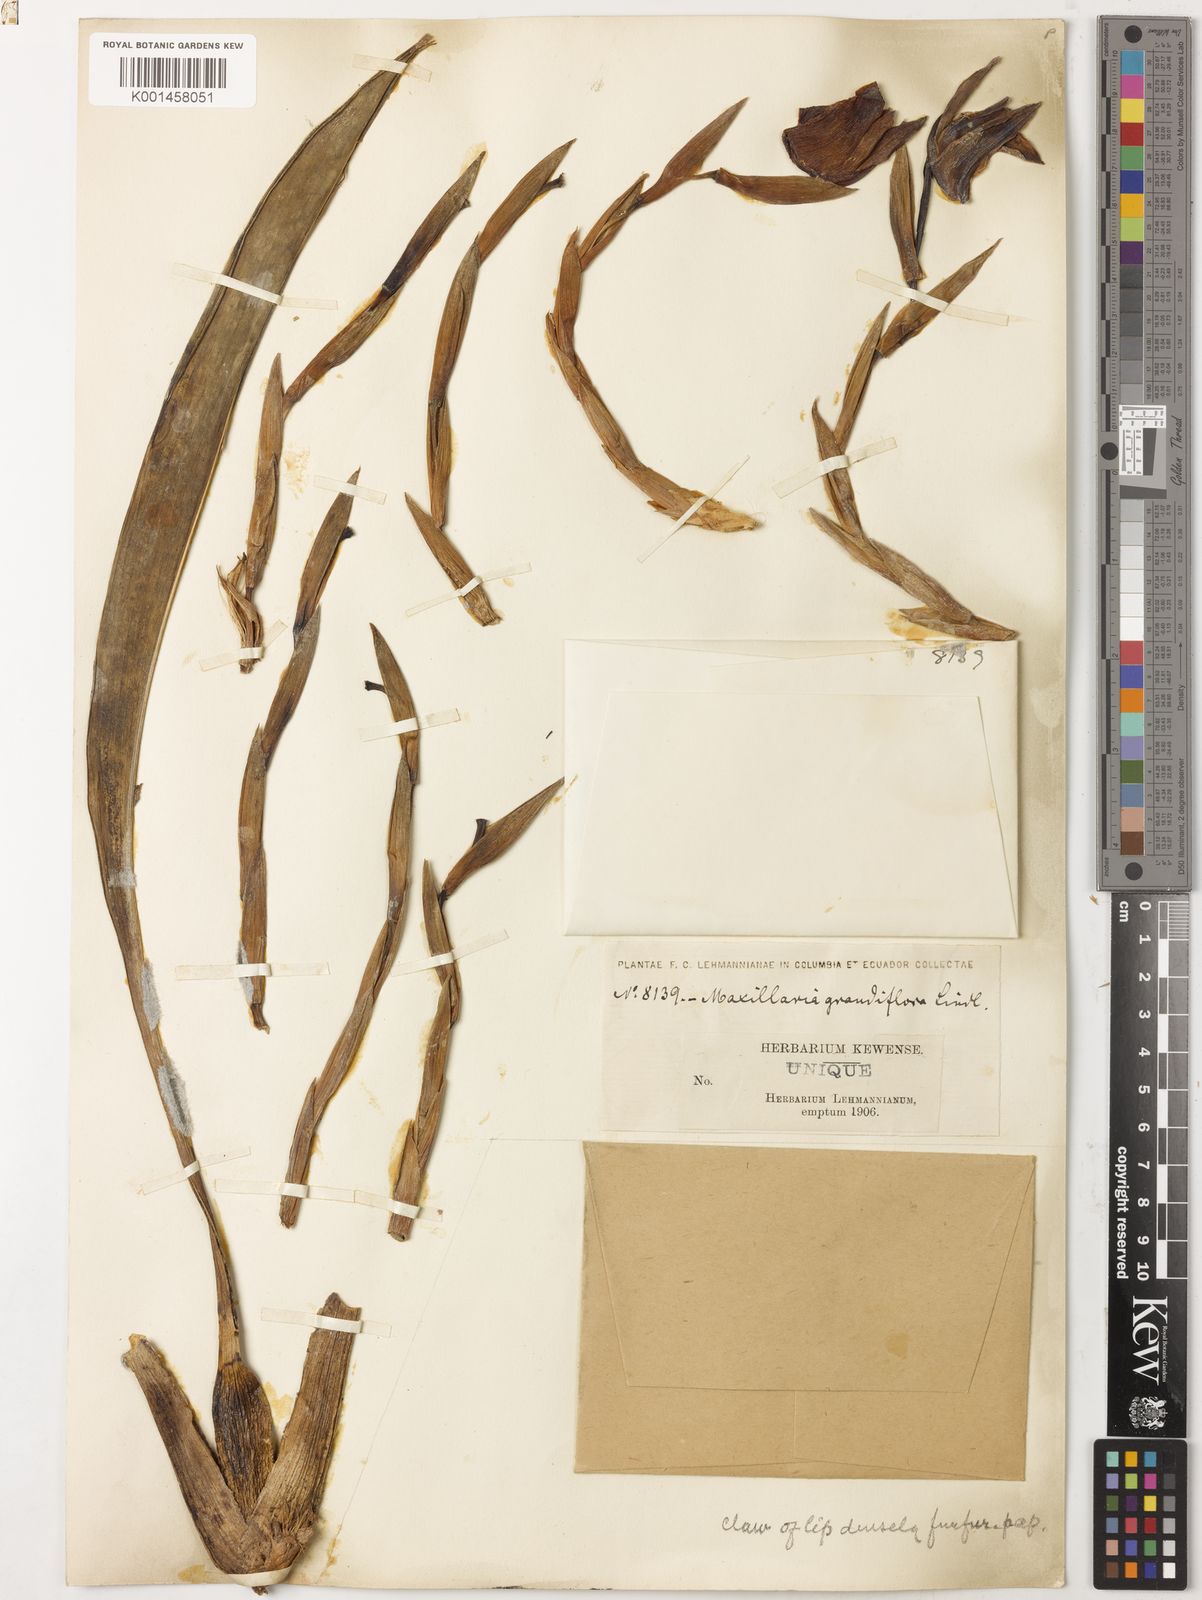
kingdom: Plantae
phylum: Tracheophyta
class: Liliopsida
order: Asparagales
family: Orchidaceae
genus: Maxillaria
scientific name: Maxillaria grandiflora
